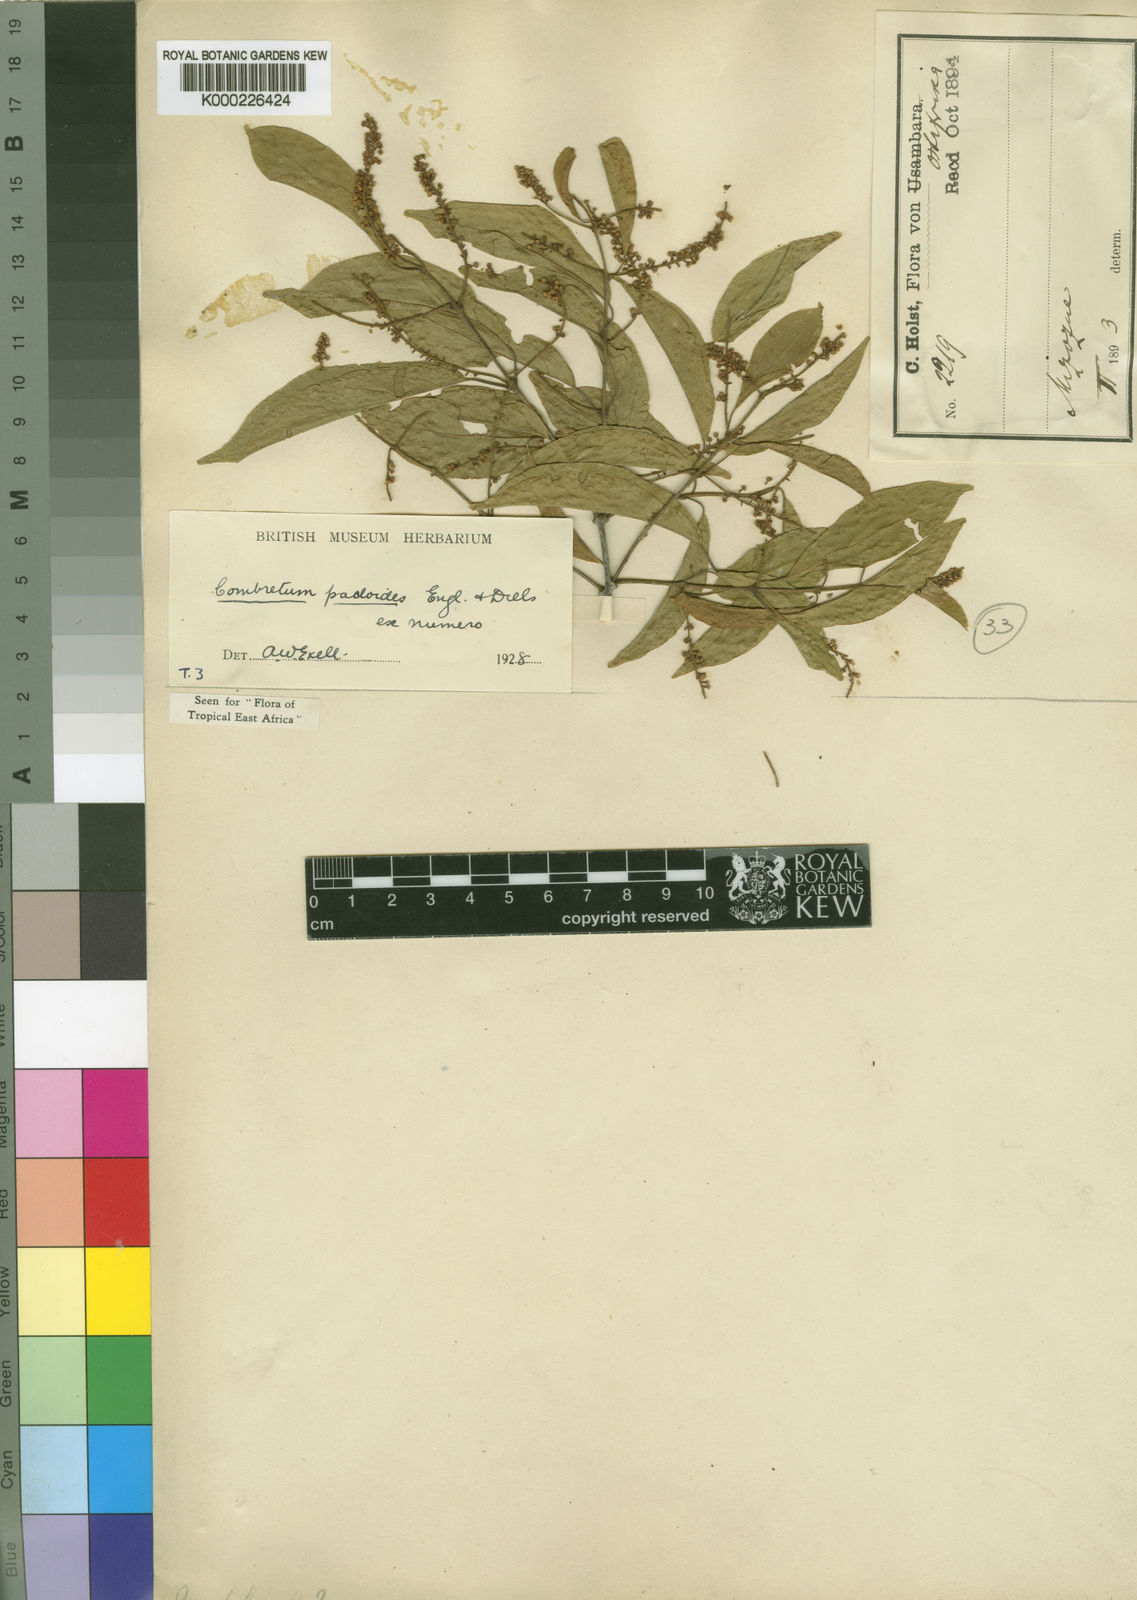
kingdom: Plantae
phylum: Tracheophyta
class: Magnoliopsida
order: Myrtales
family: Combretaceae
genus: Combretum
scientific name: Combretum padoides
